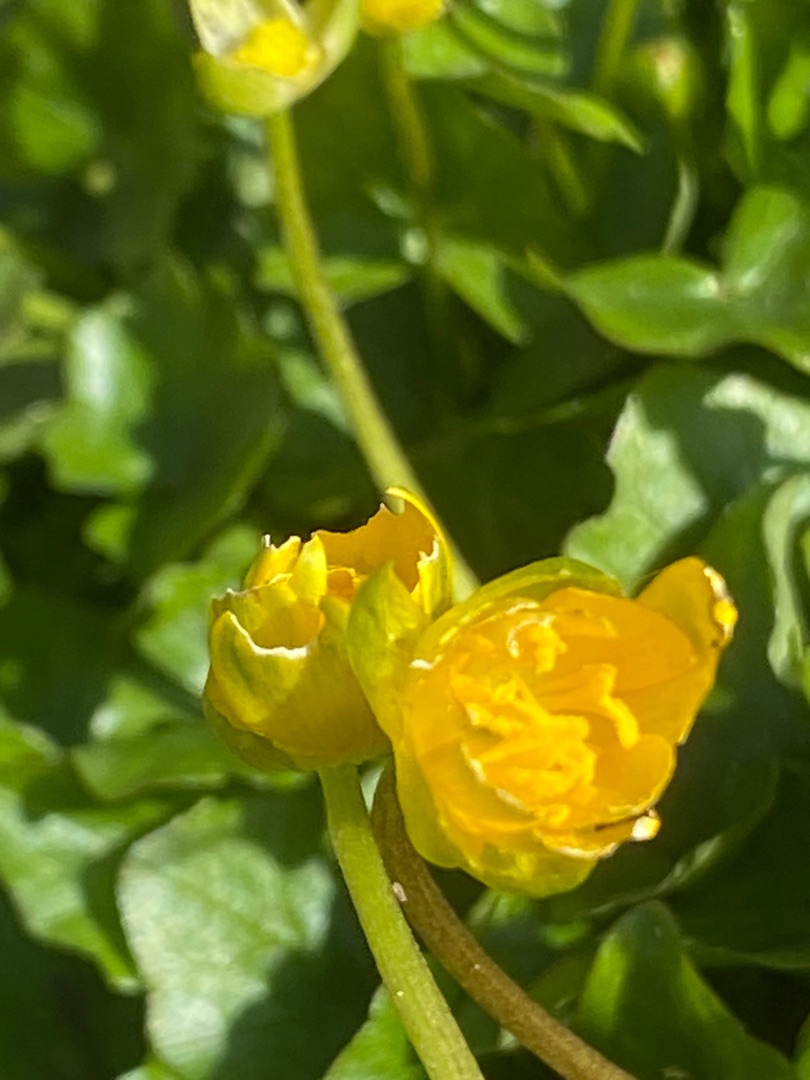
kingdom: Plantae
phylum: Tracheophyta
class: Magnoliopsida
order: Ranunculales
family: Ranunculaceae
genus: Ficaria
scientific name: Ficaria verna
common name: Vorterod
